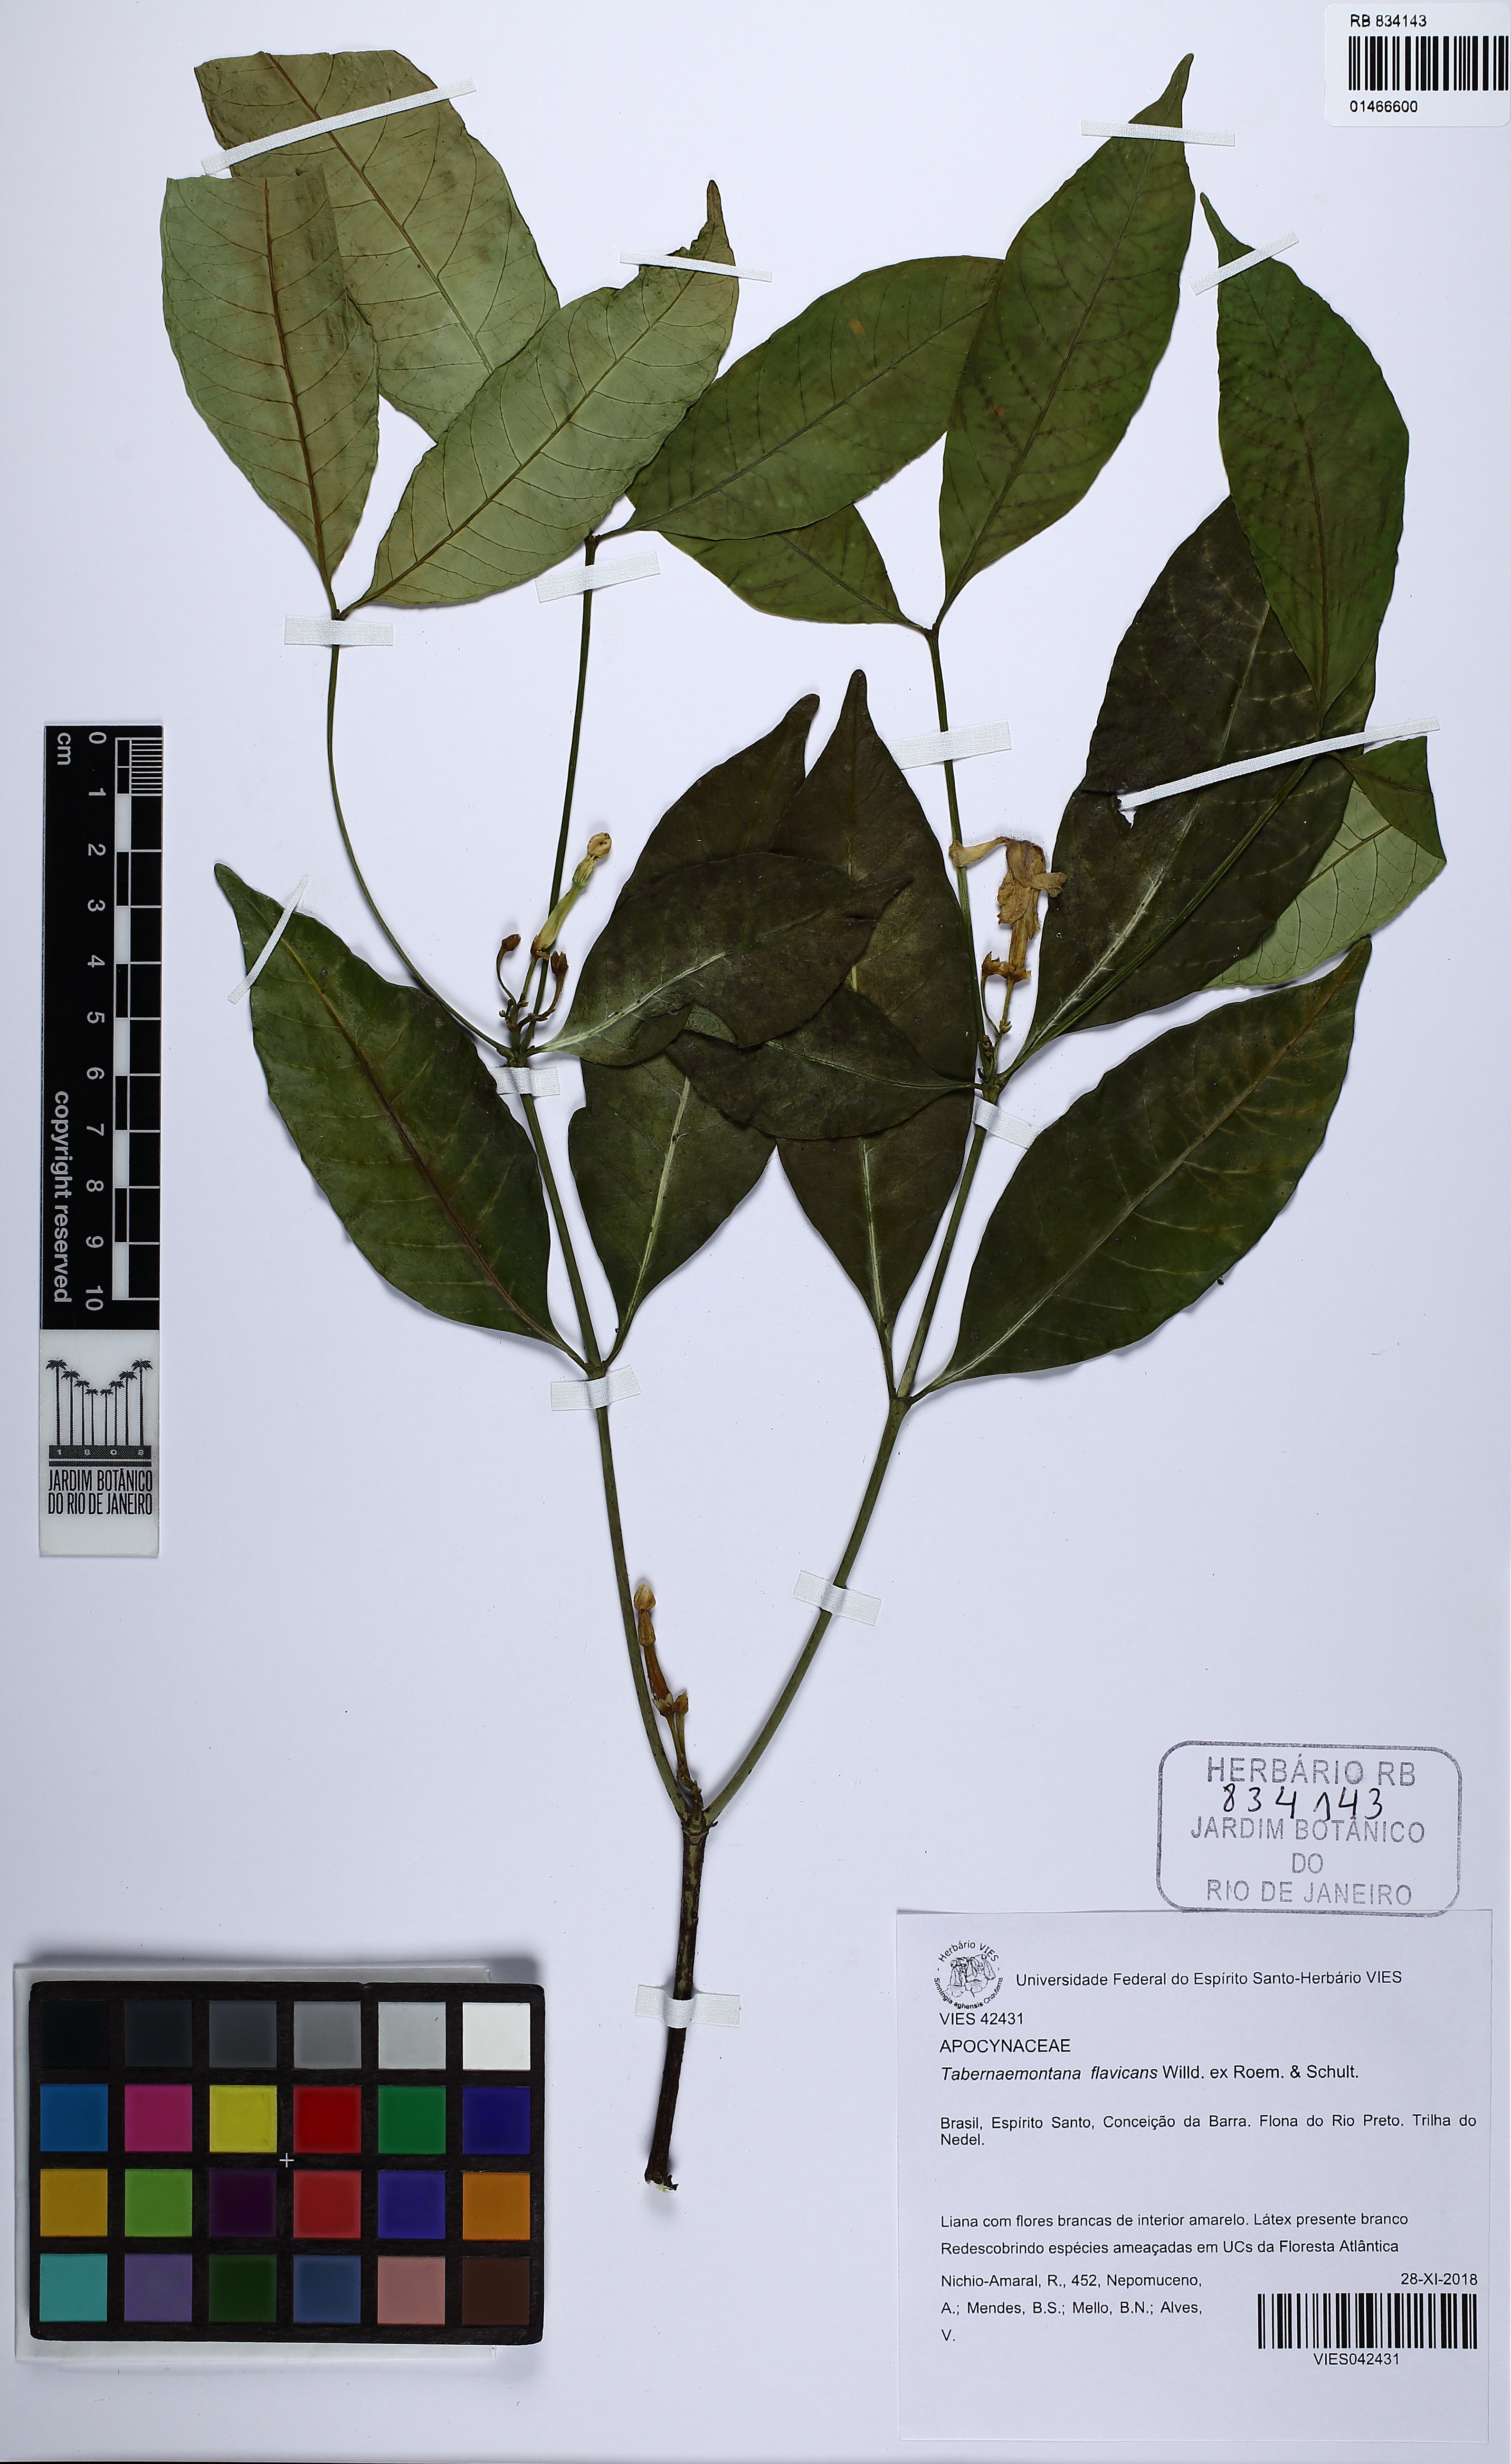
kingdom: Plantae
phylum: Tracheophyta
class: Magnoliopsida
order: Gentianales
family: Apocynaceae
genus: Malouetia
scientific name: Malouetia flavescens
